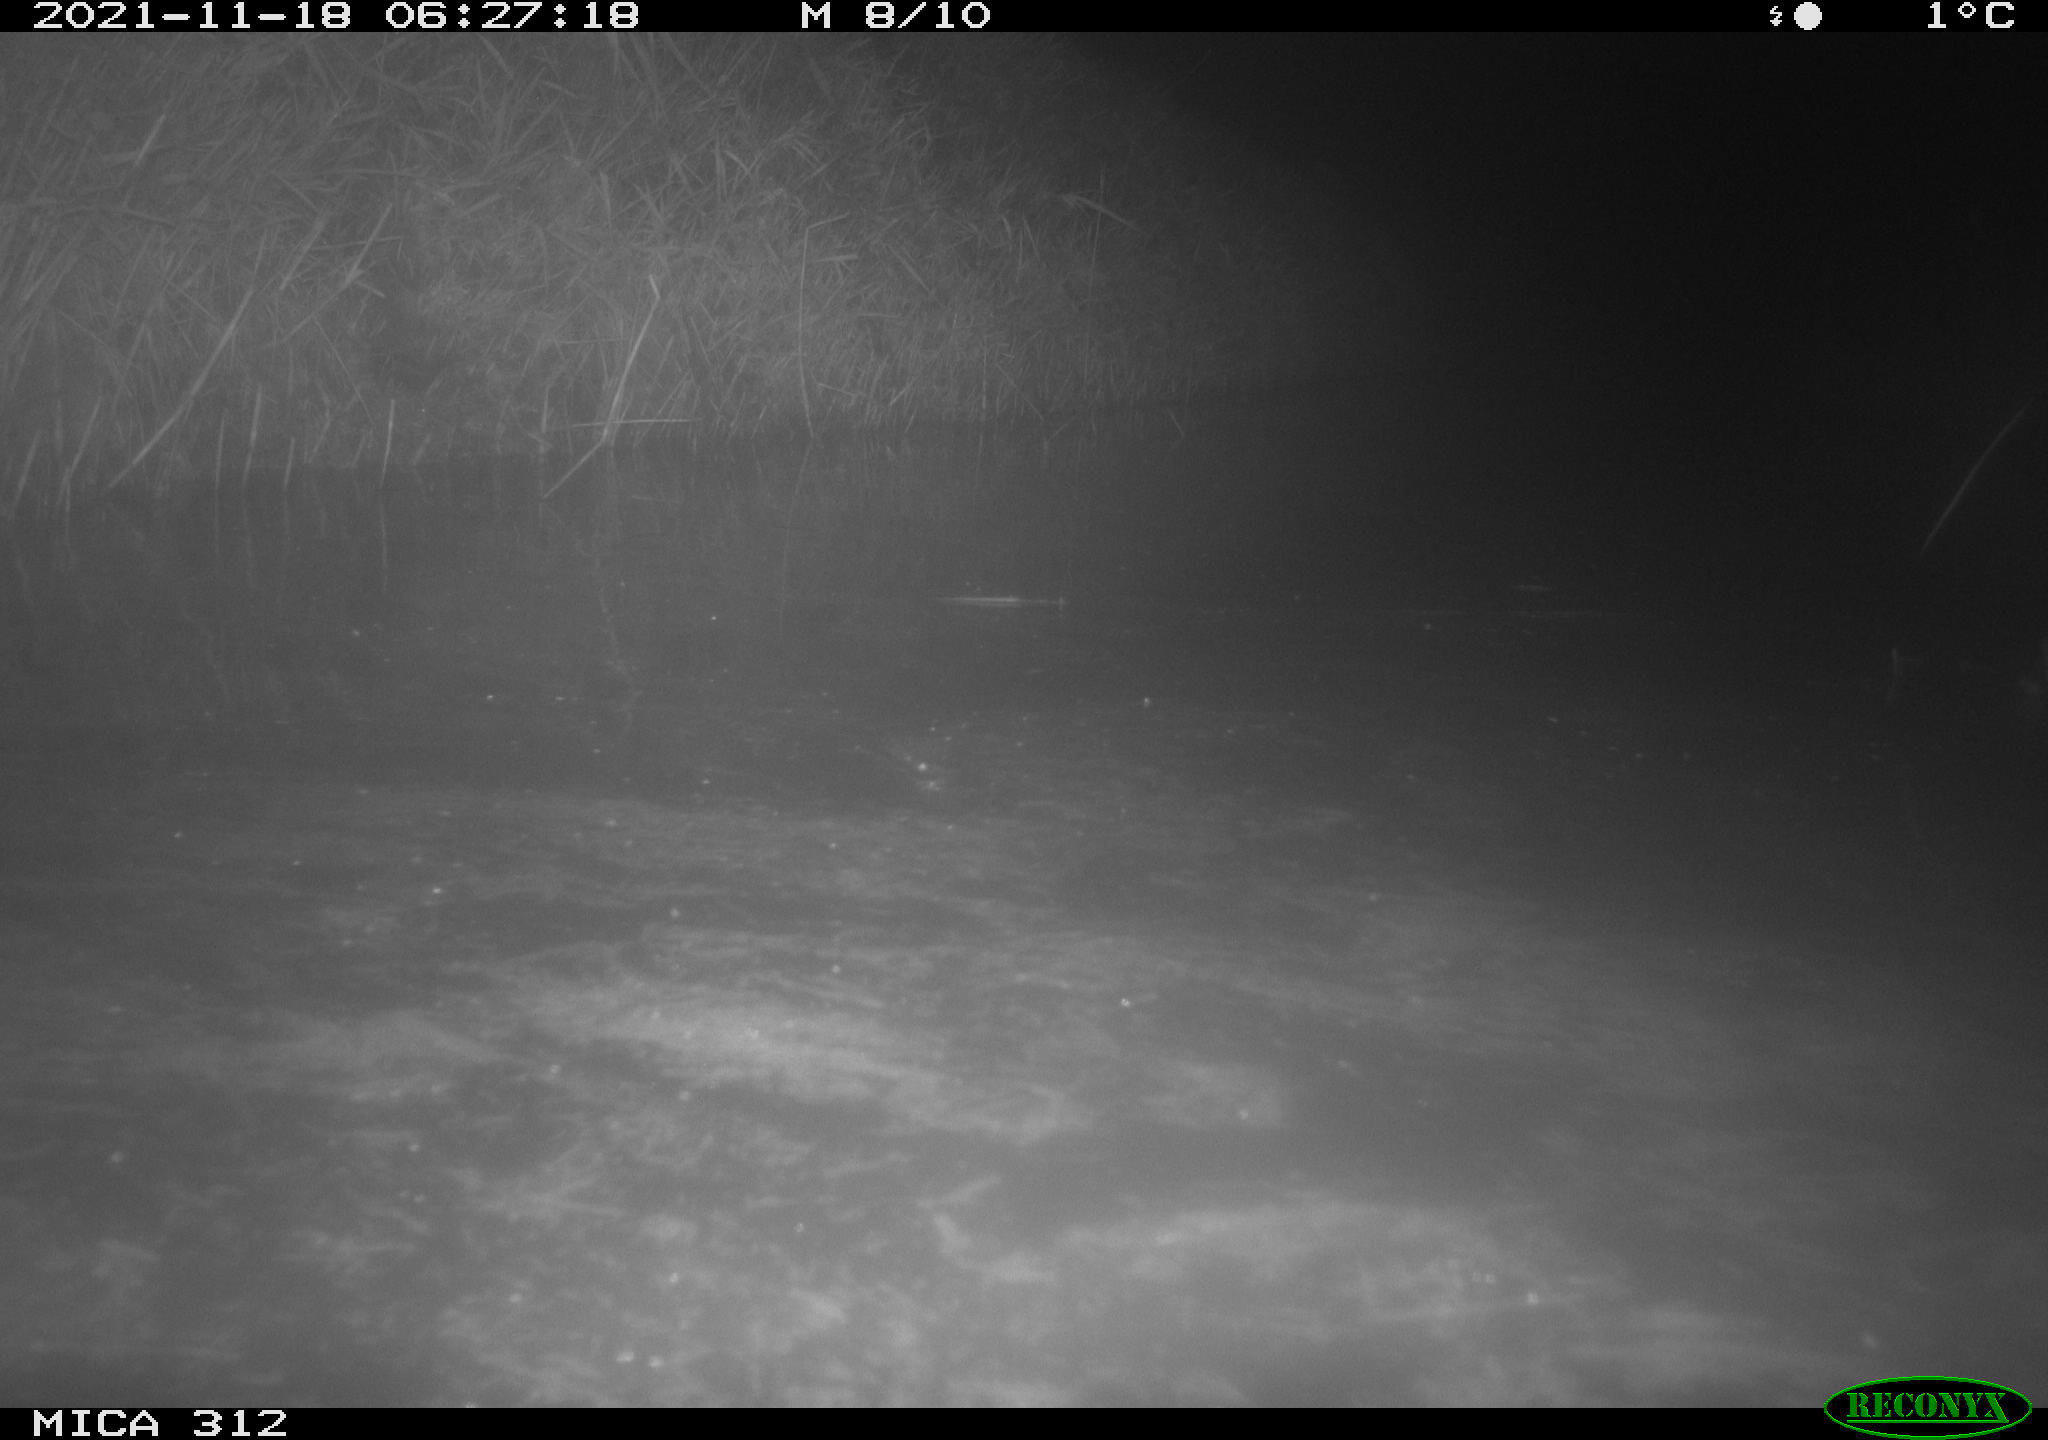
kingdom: Animalia
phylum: Chordata
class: Mammalia
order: Rodentia
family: Muridae
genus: Rattus
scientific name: Rattus norvegicus
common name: Brown rat
